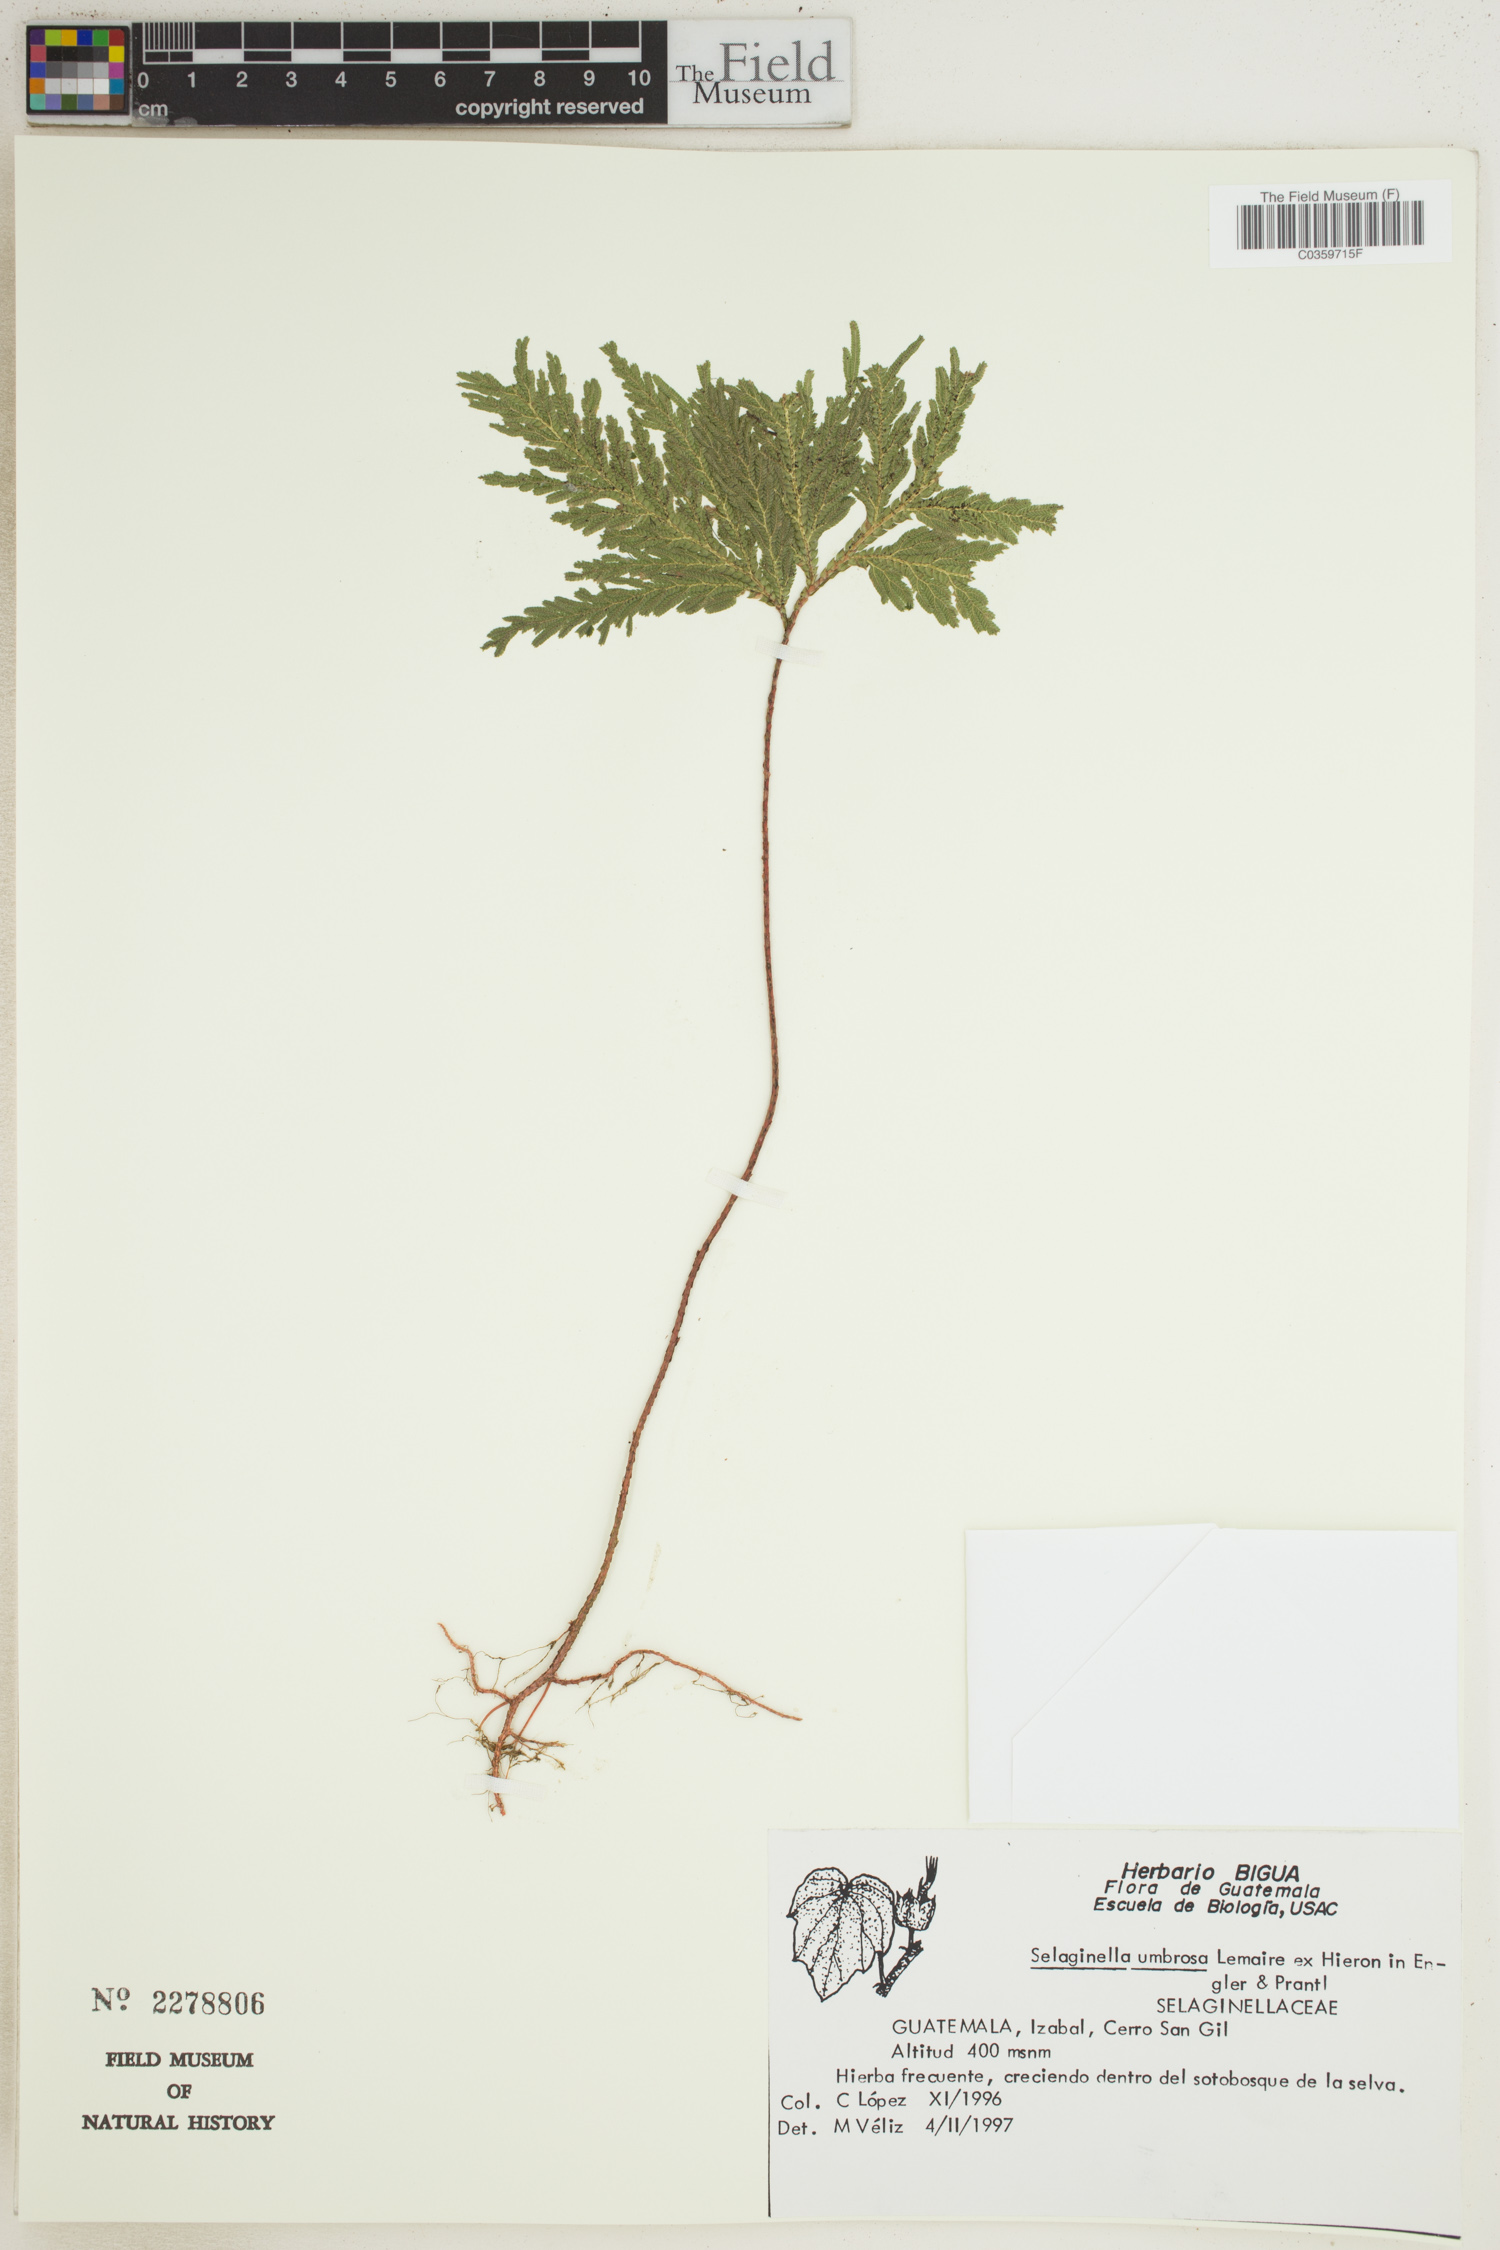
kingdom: Plantae
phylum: Tracheophyta
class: Lycopodiopsida
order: Selaginellales
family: Selaginellaceae
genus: Selaginella
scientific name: Selaginella umbrosa
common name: Spikemoss
